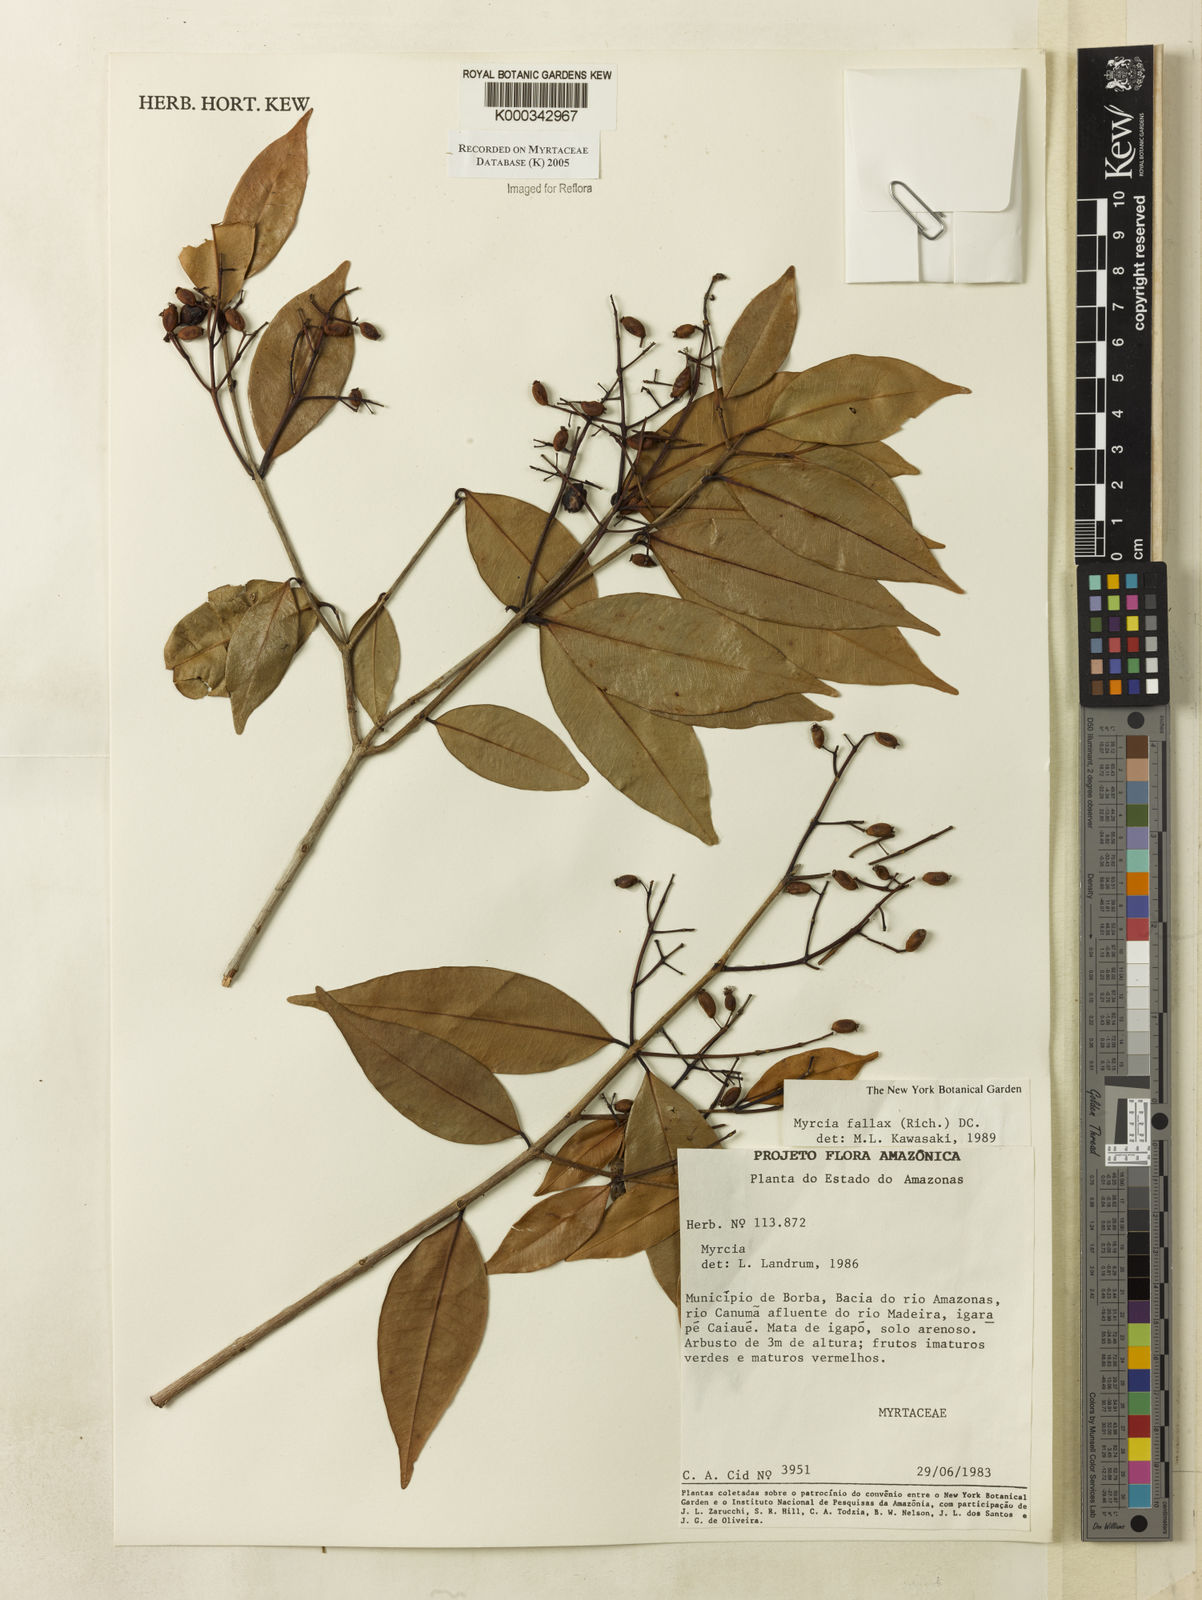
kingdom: Plantae
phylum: Tracheophyta
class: Magnoliopsida
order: Myrtales
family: Myrtaceae
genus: Myrcia
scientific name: Myrcia splendens
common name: Surinam cherry
